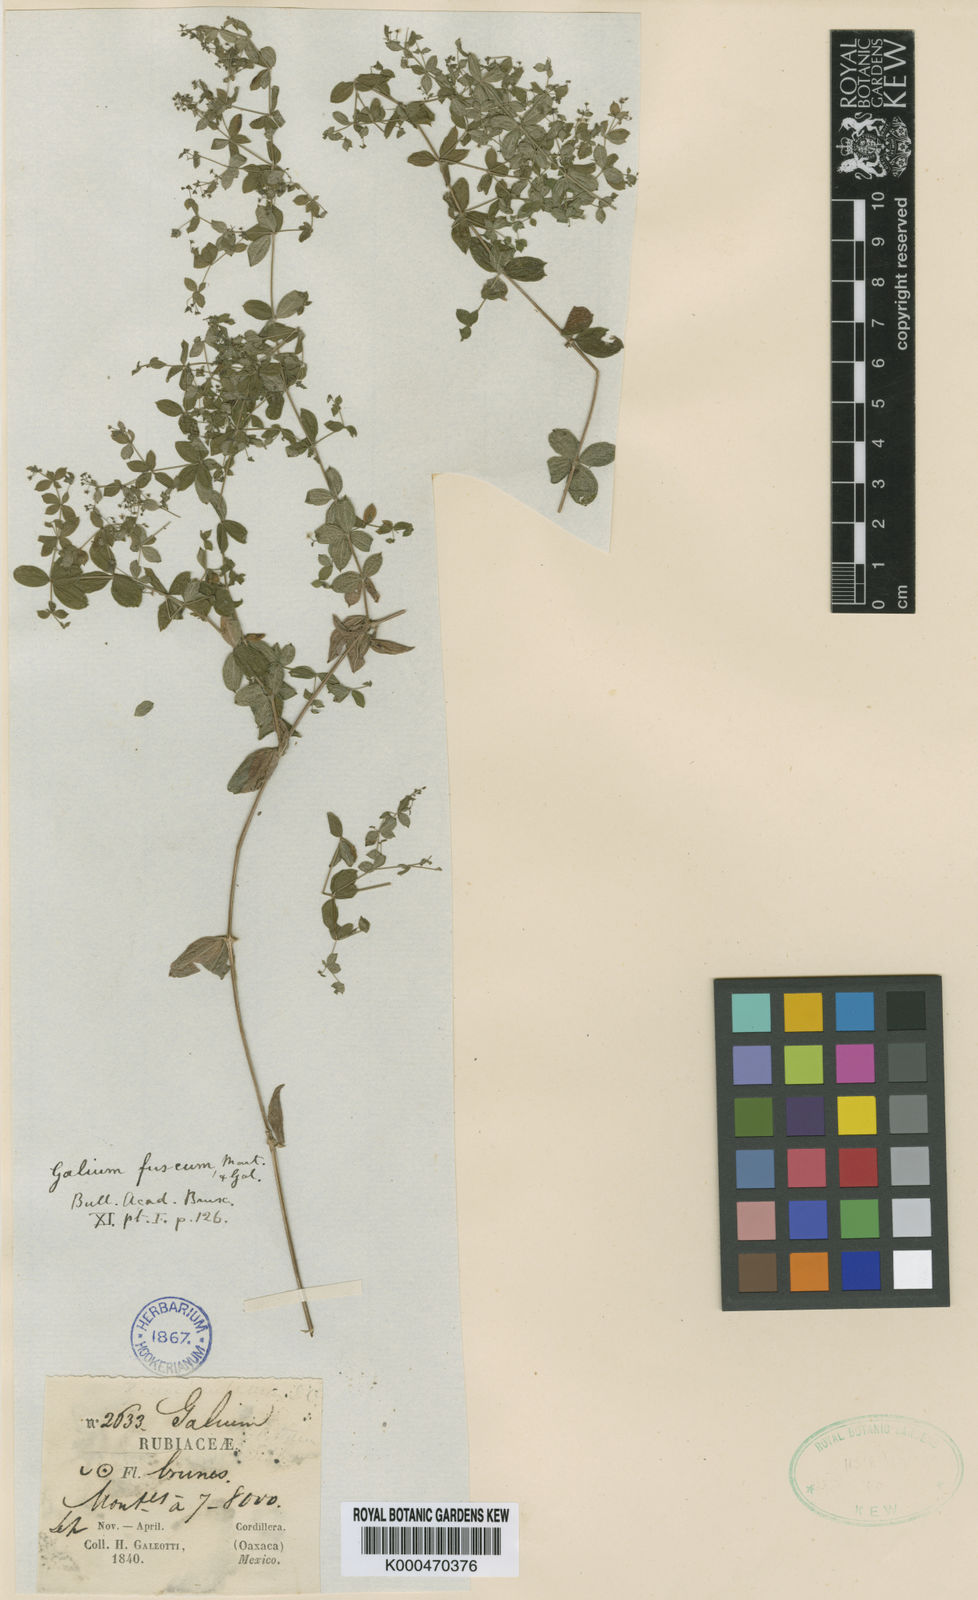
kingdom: Plantae
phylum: Tracheophyta
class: Magnoliopsida
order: Gentianales
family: Rubiaceae
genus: Galium
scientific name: Galium fuscum
